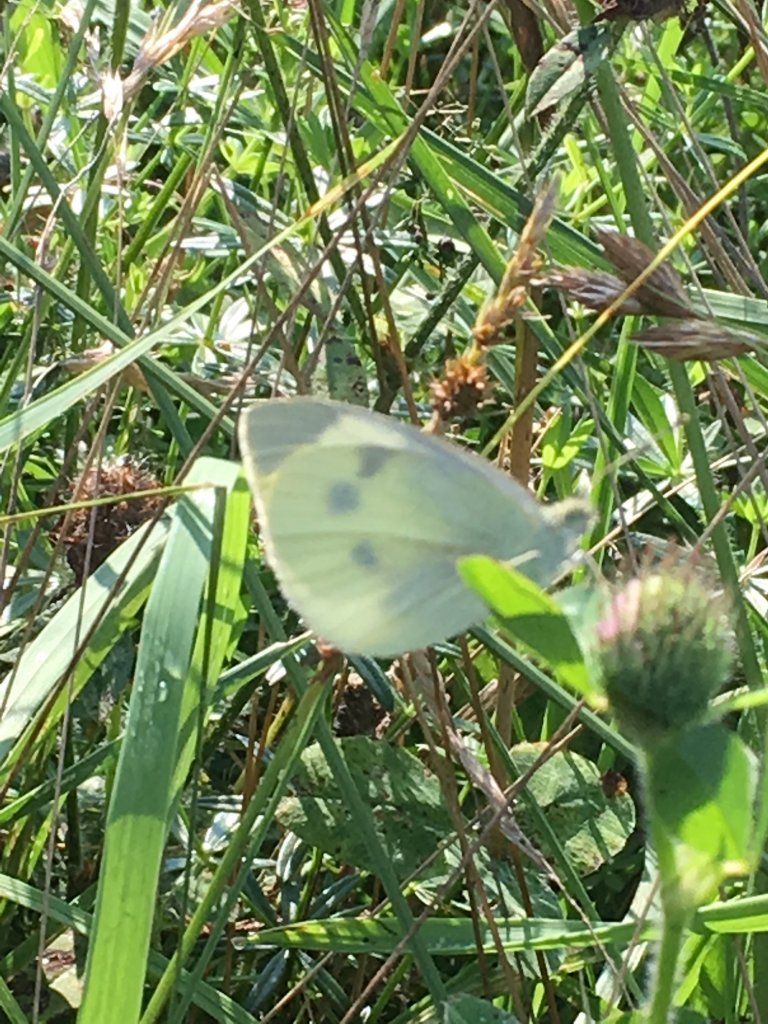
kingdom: Animalia
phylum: Arthropoda
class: Insecta
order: Lepidoptera
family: Pieridae
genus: Pieris
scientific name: Pieris rapae
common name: Cabbage White
